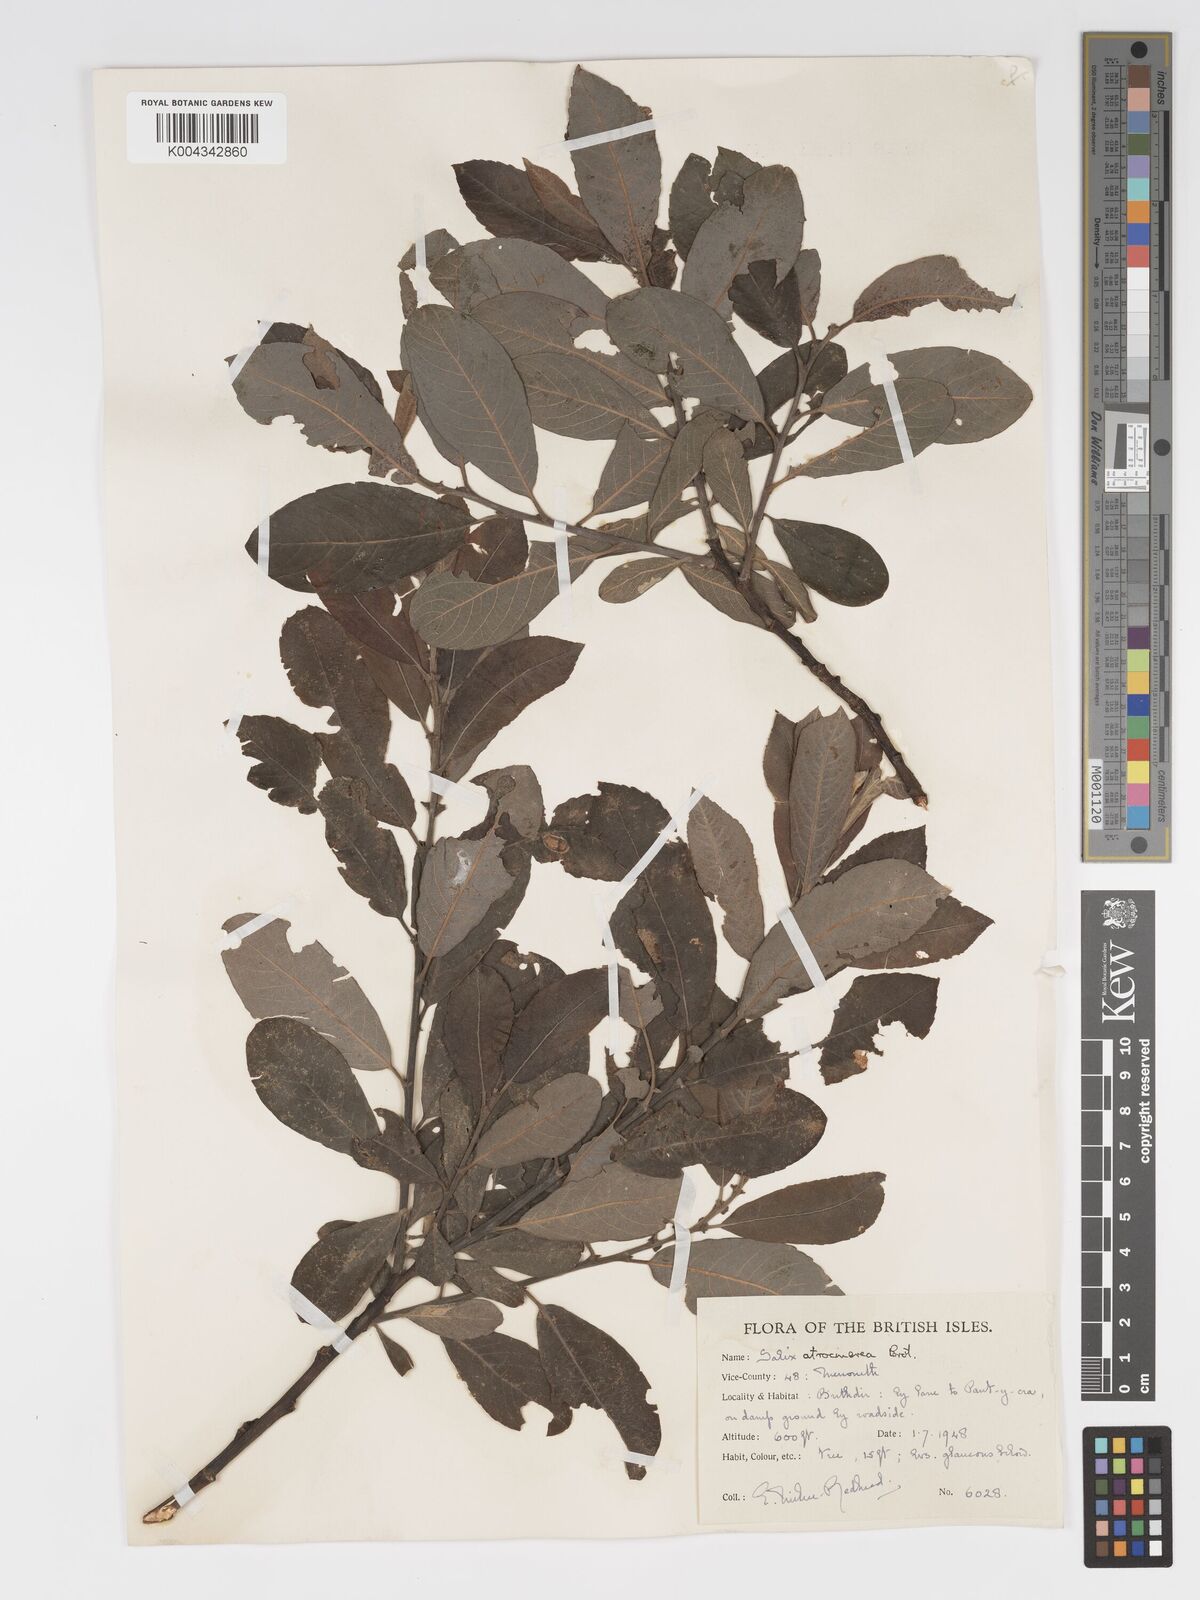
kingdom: Plantae
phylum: Tracheophyta
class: Magnoliopsida
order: Malpighiales
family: Salicaceae
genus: Salix
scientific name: Salix atrocinerea
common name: Rusty willow
